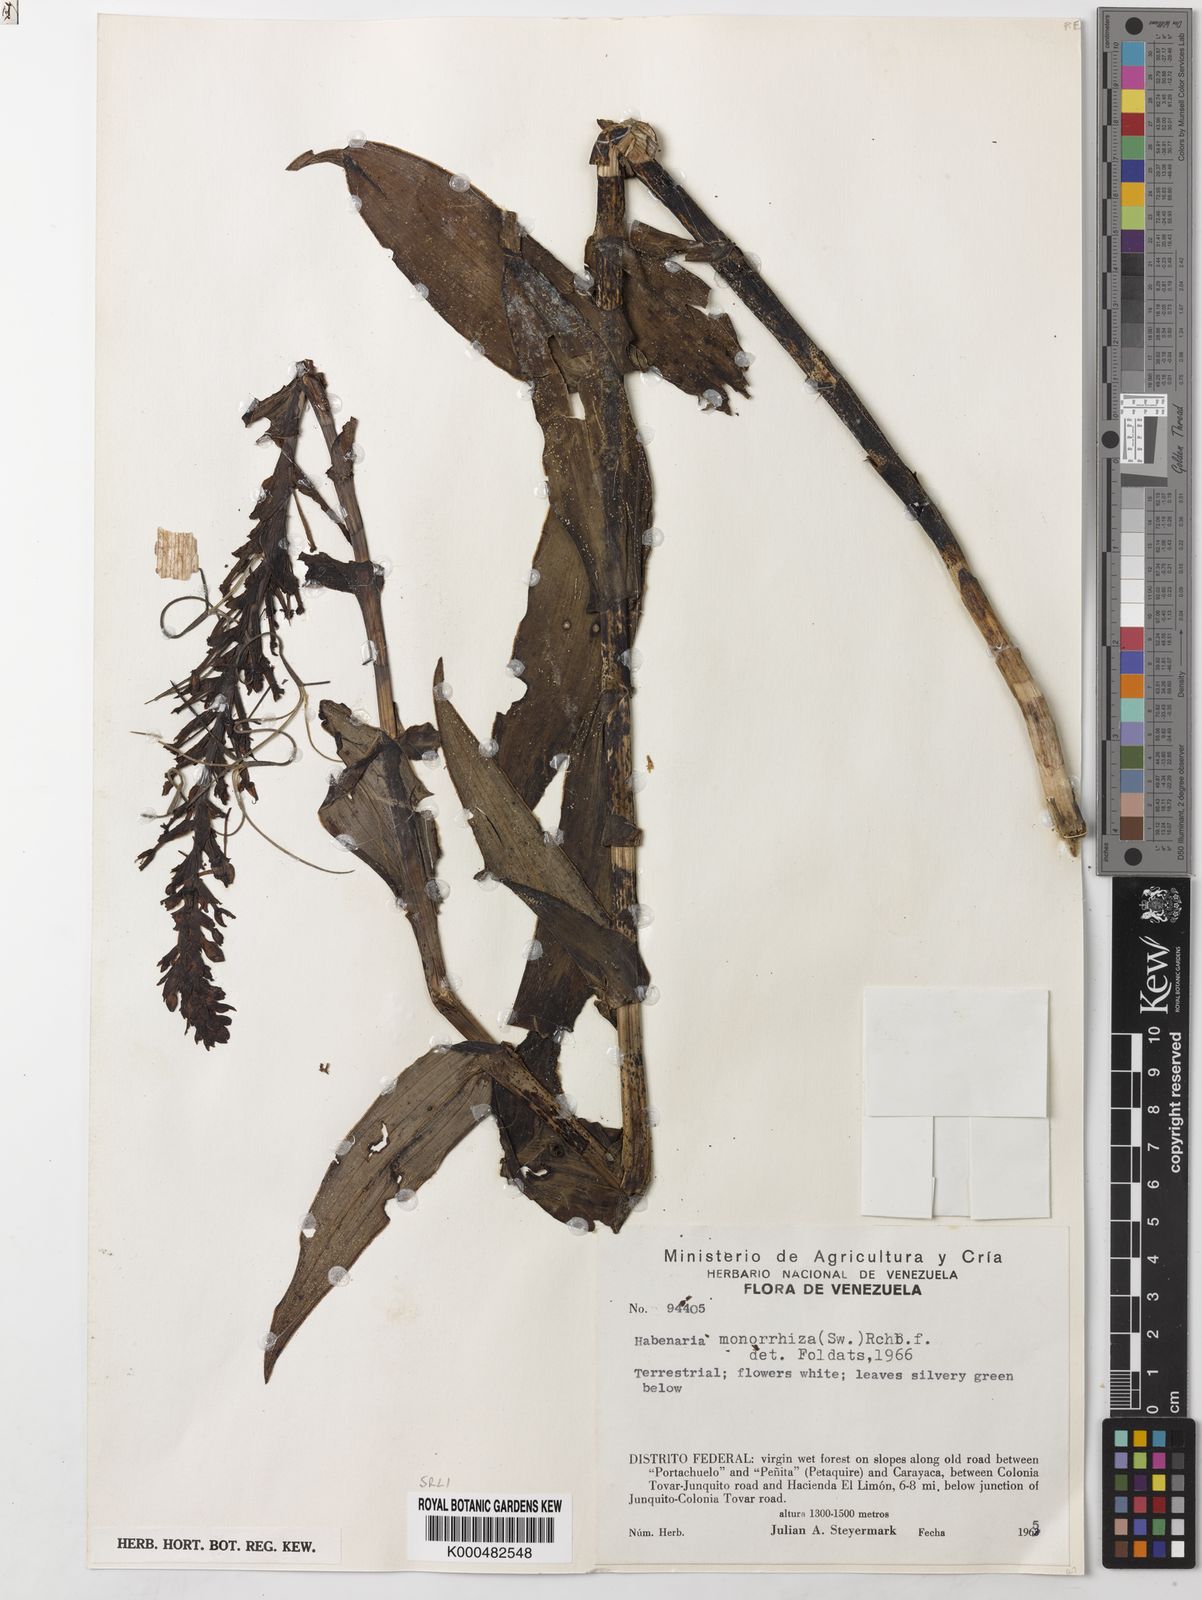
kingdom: Plantae
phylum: Tracheophyta
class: Liliopsida
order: Asparagales
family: Orchidaceae
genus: Habenaria
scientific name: Habenaria monorrhiza
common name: Tropical bog orchid
